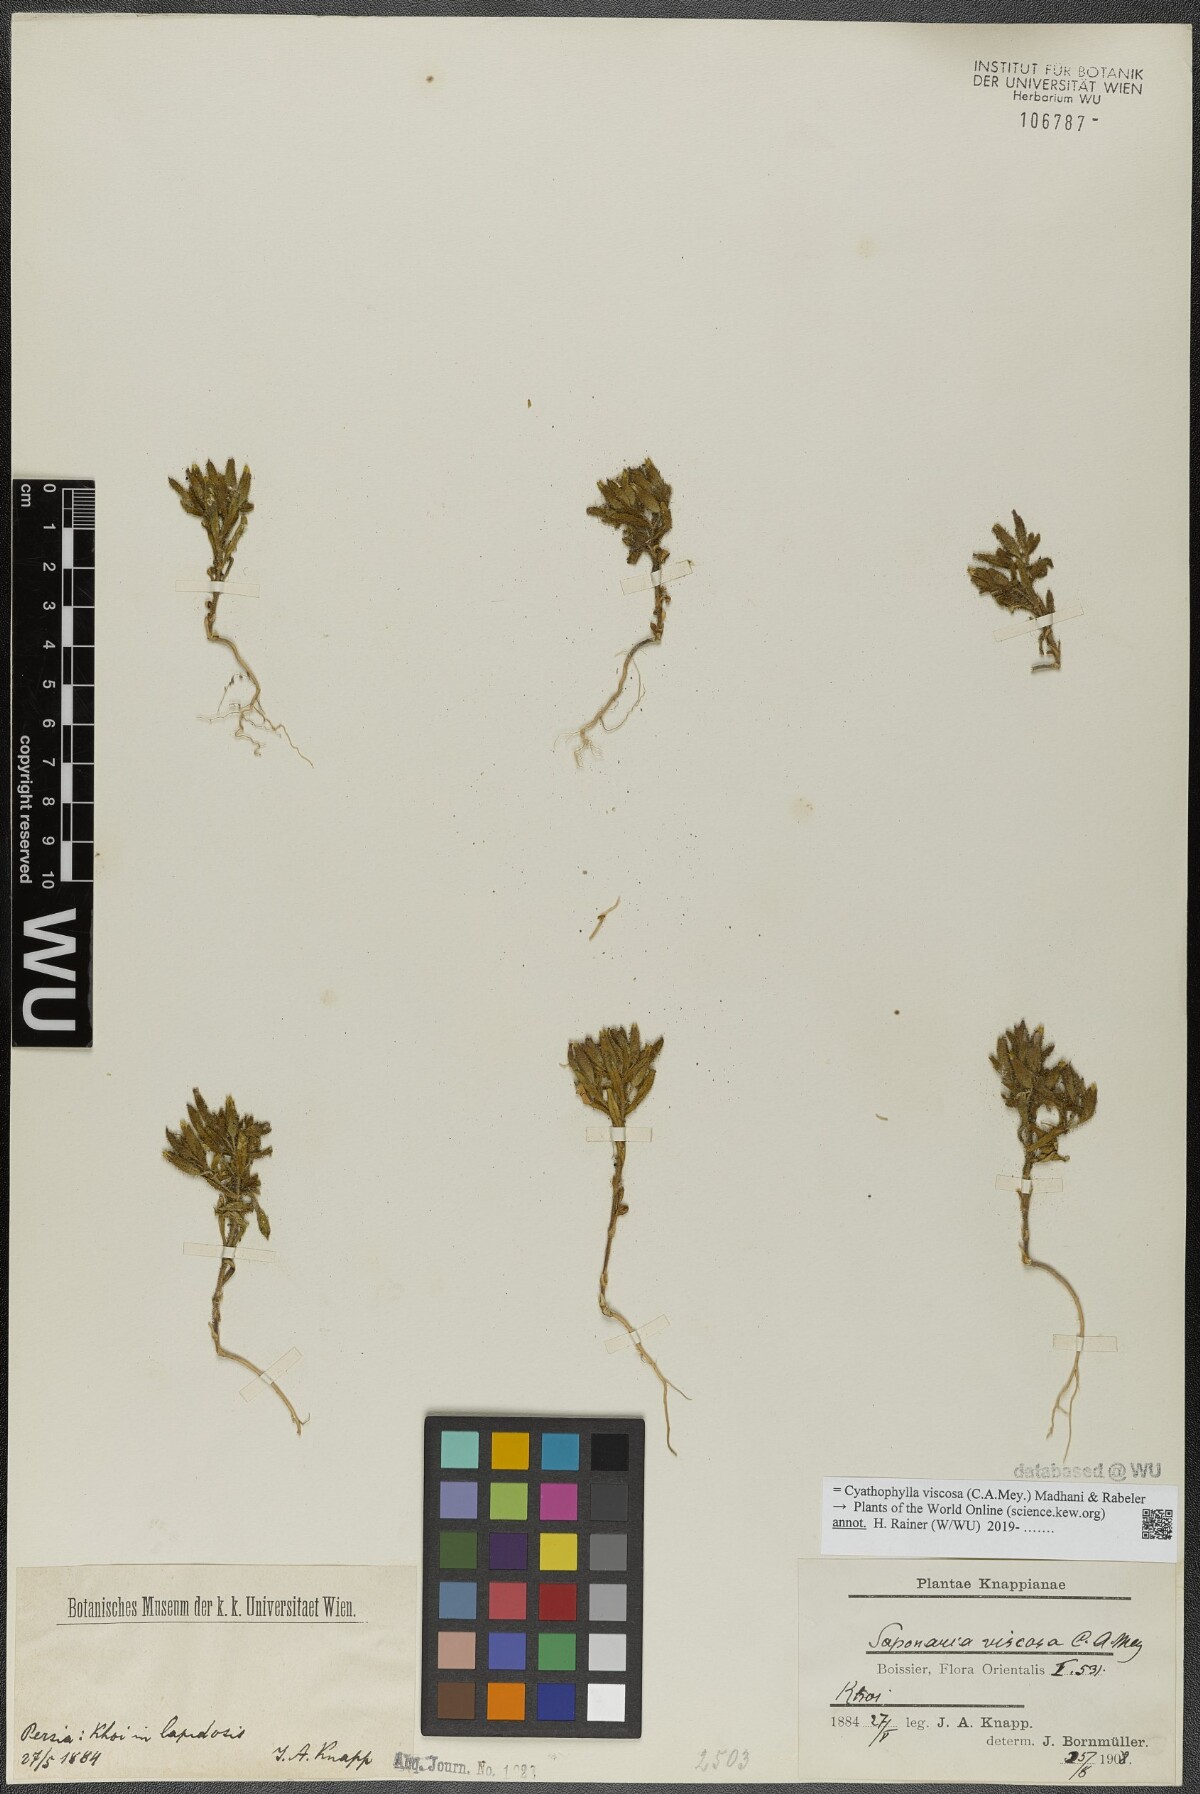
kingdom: Plantae
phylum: Tracheophyta
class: Magnoliopsida
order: Caryophyllales
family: Caryophyllaceae
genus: Cyathophylla
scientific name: Cyathophylla viscosa
